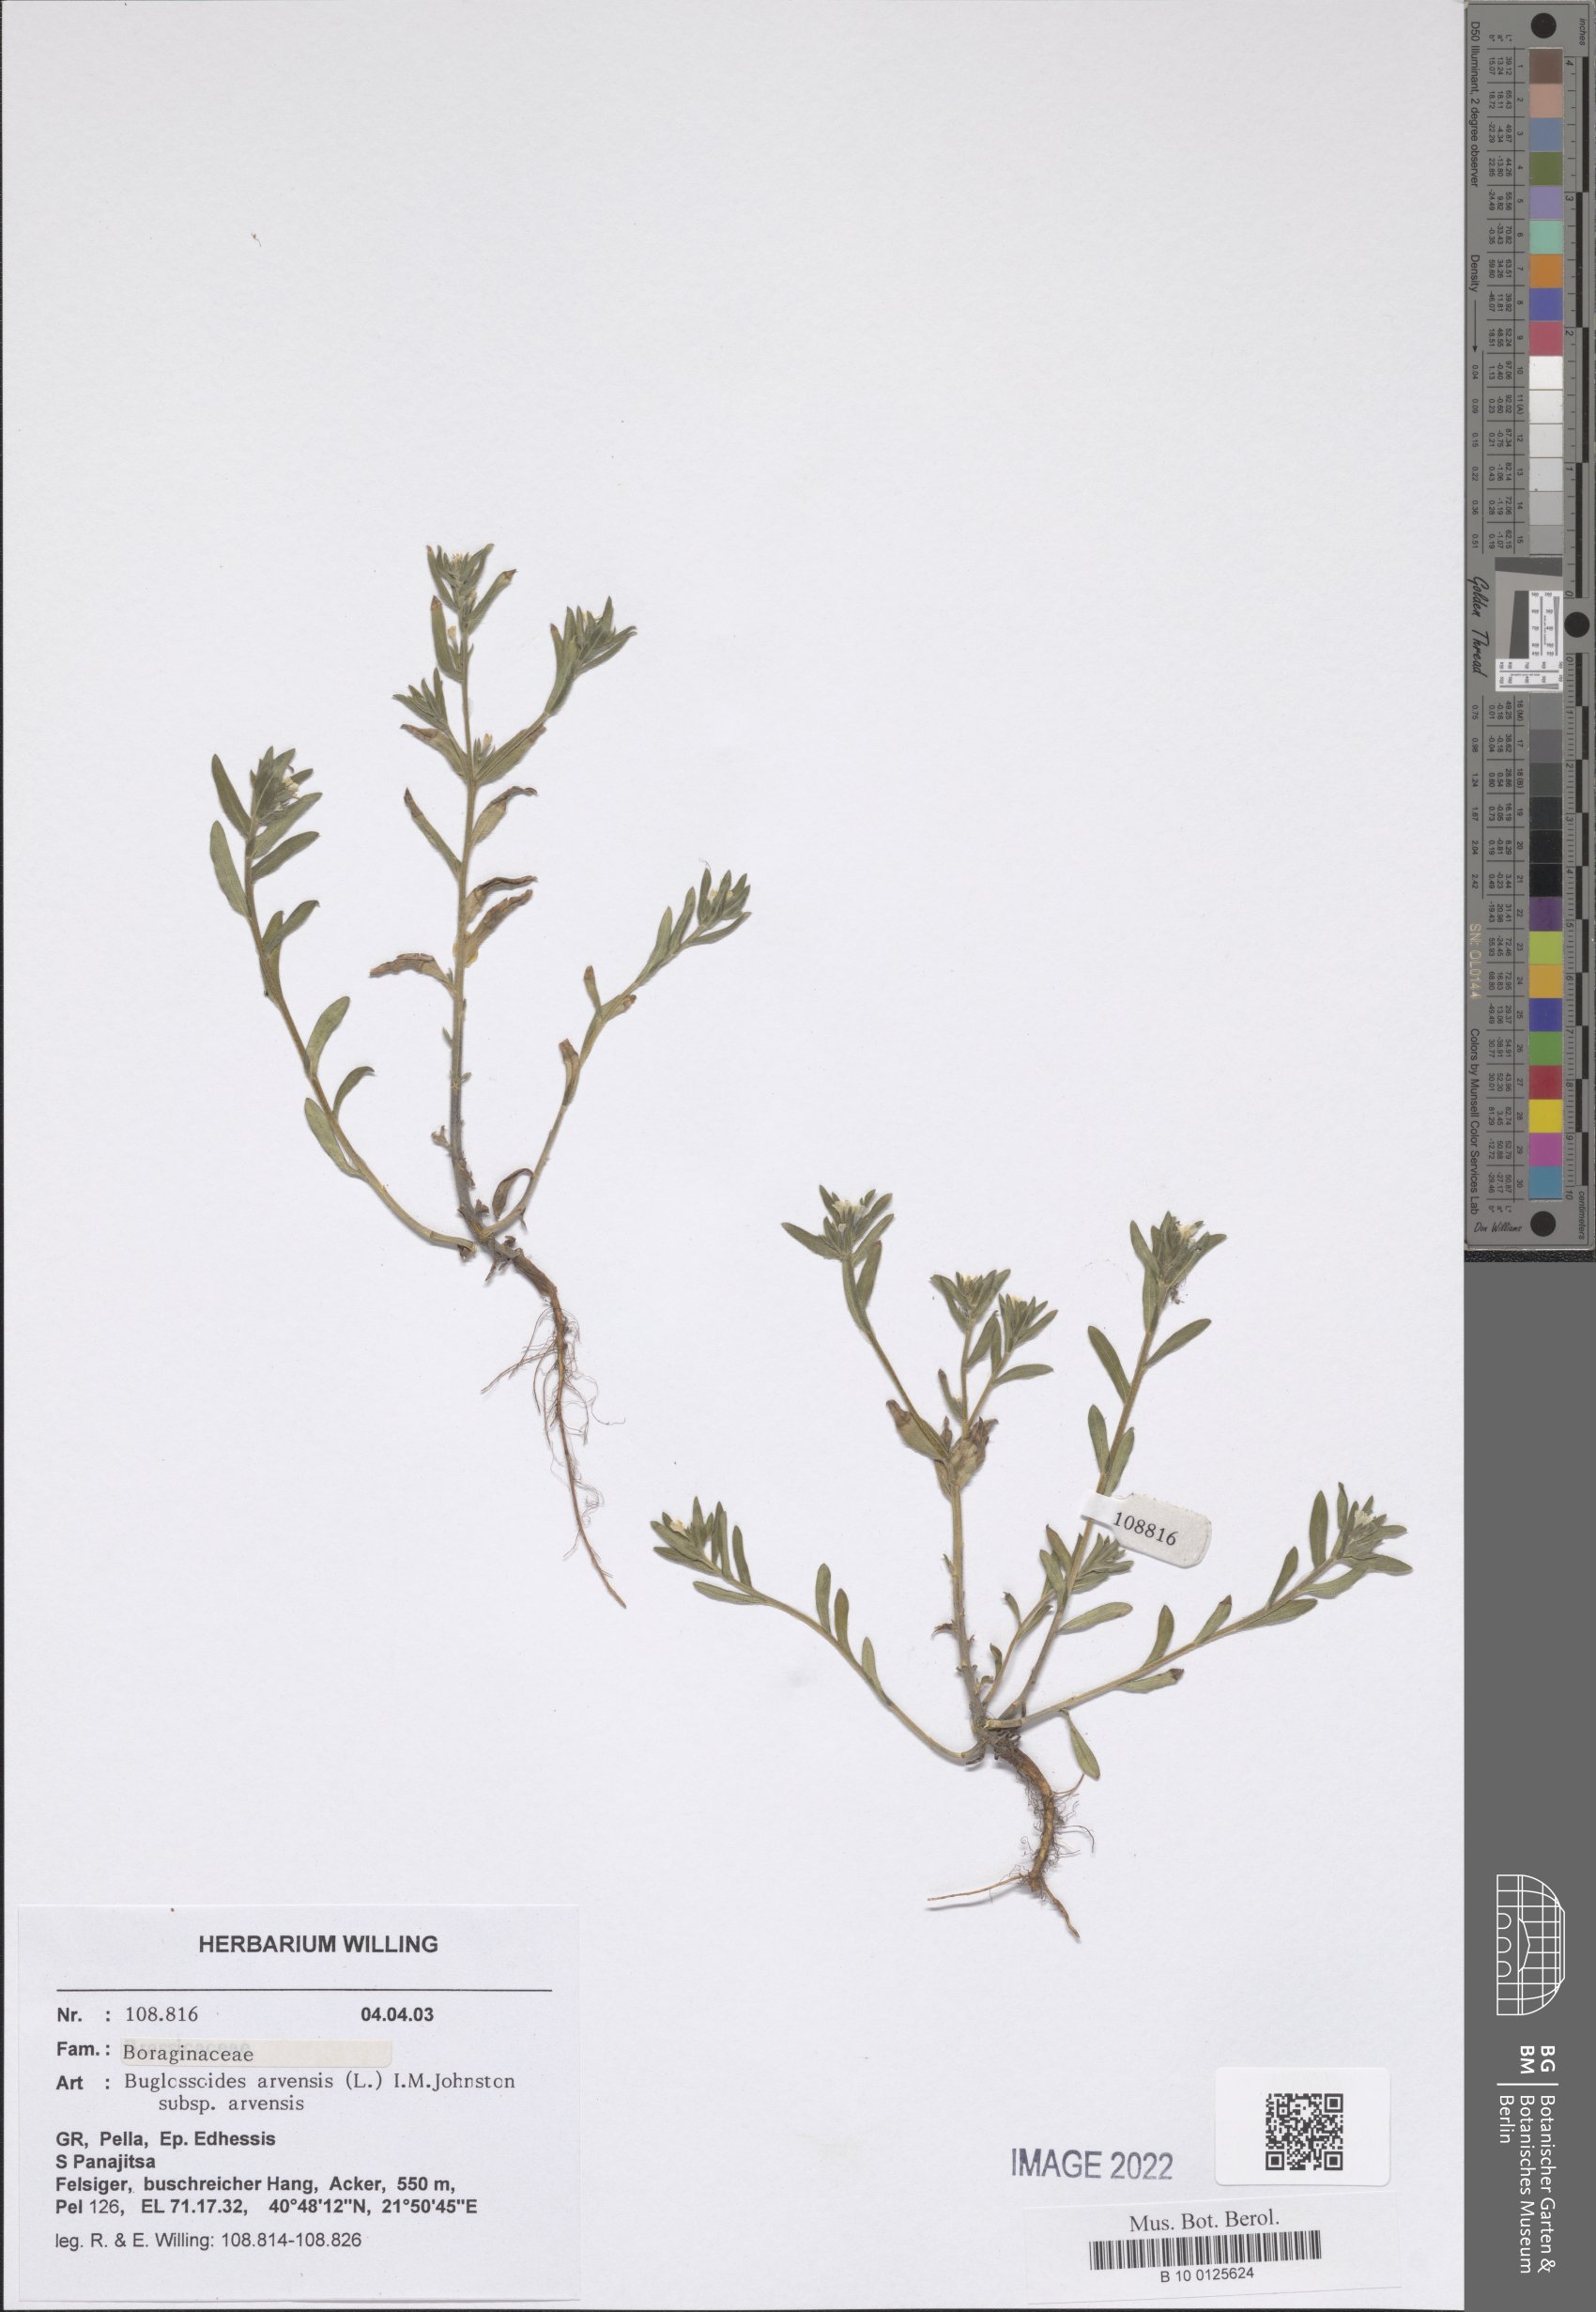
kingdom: Plantae
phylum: Tracheophyta
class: Magnoliopsida
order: Boraginales
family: Boraginaceae
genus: Buglossoides
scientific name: Buglossoides arvensis
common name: Corn gromwell
